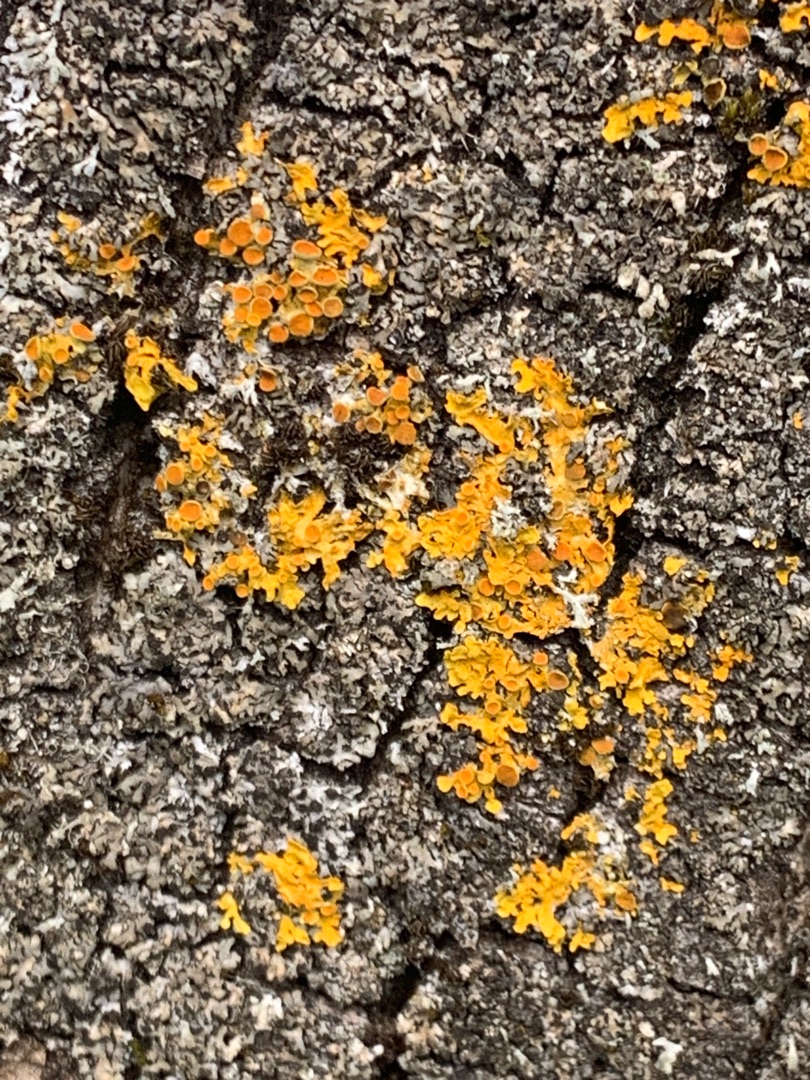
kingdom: Fungi
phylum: Ascomycota
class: Lecanoromycetes
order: Teloschistales
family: Teloschistaceae
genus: Xanthoria
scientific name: Xanthoria parietina
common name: Almindelig væggelav
